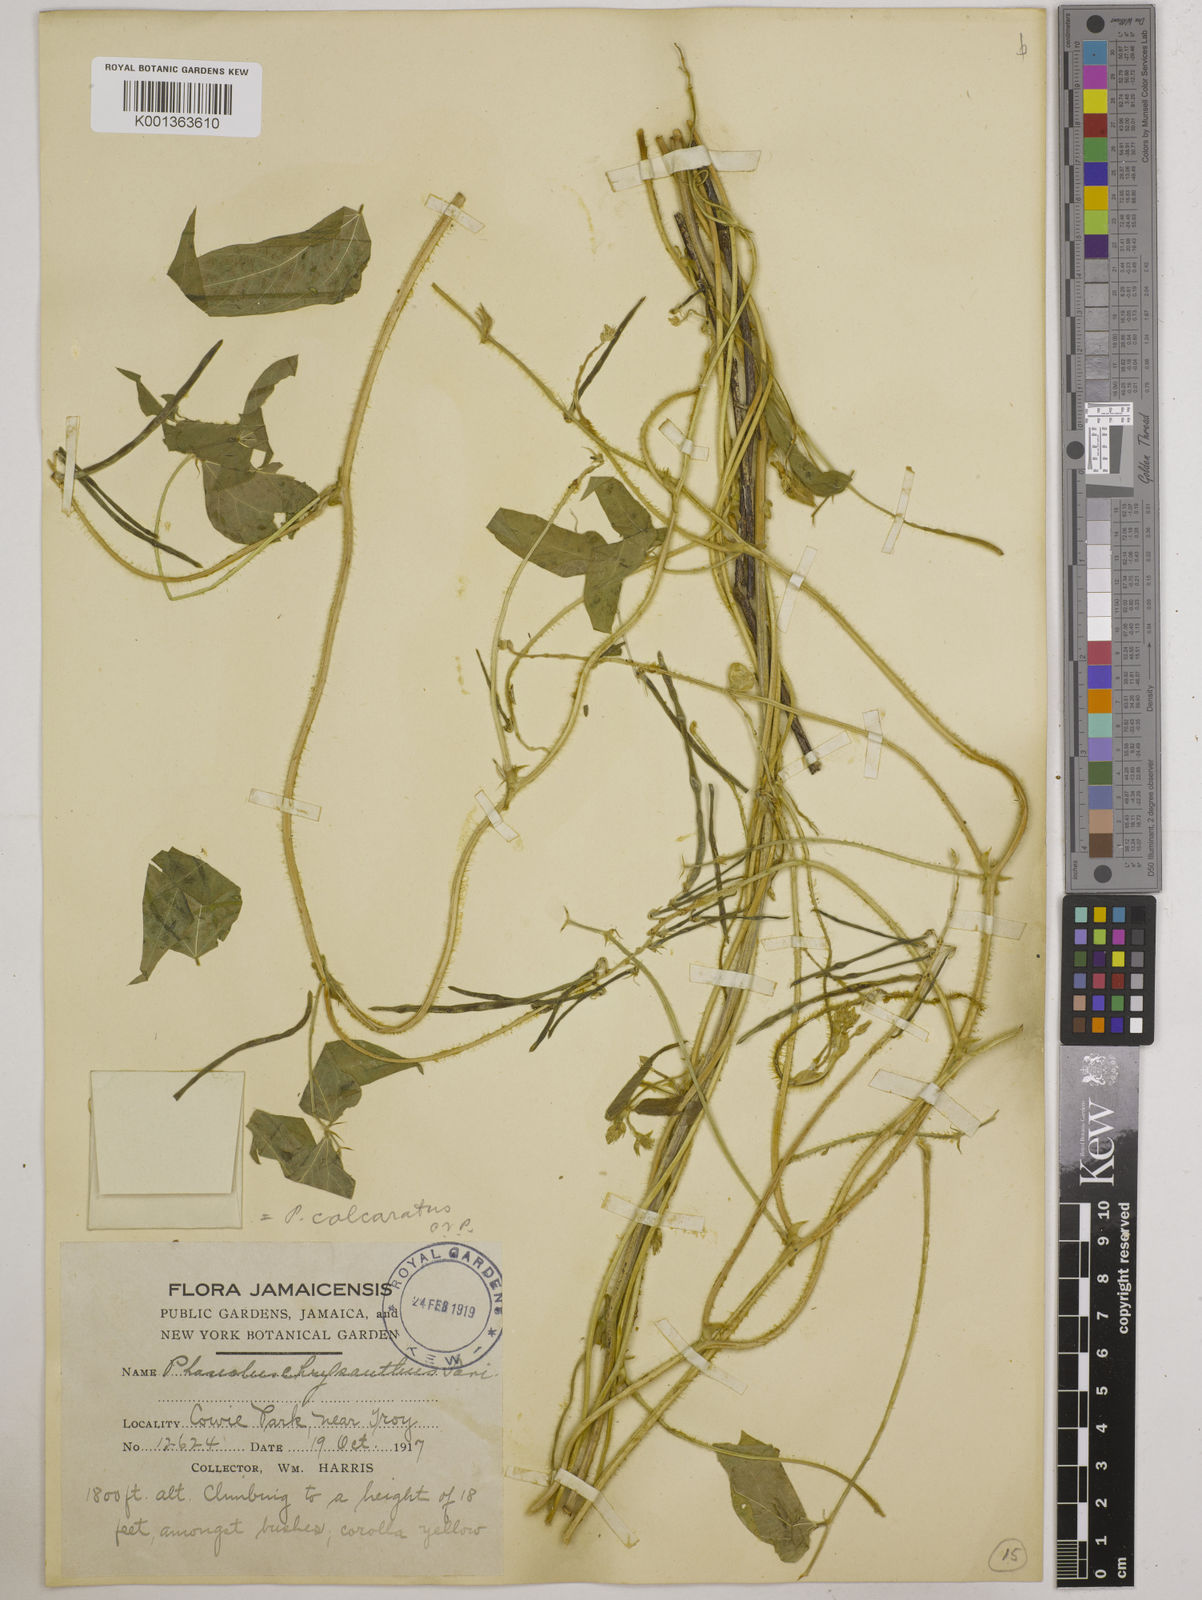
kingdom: Plantae
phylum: Tracheophyta
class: Magnoliopsida
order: Fabales
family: Fabaceae
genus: Vigna
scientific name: Vigna umbellata
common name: Oriental-bean
